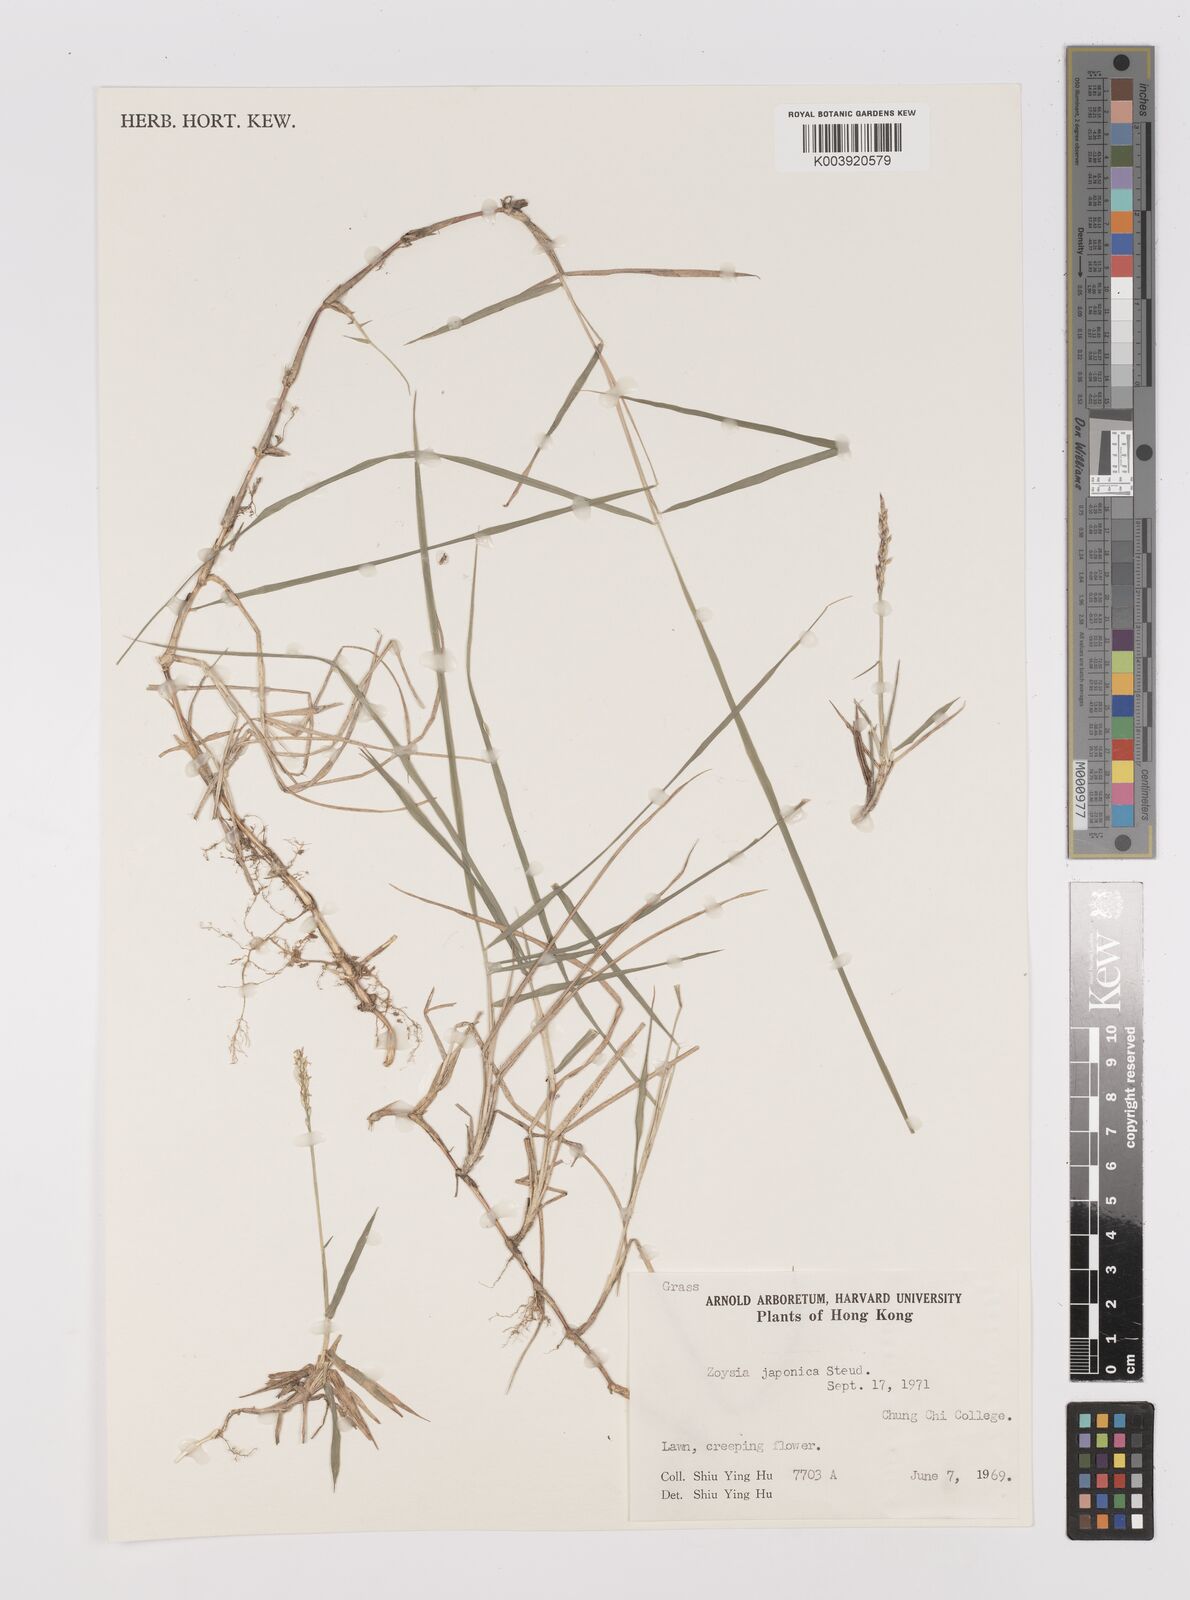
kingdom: Plantae
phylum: Tracheophyta
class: Liliopsida
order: Poales
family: Poaceae
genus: Zoysia
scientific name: Zoysia japonica
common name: Korean lawngrass
